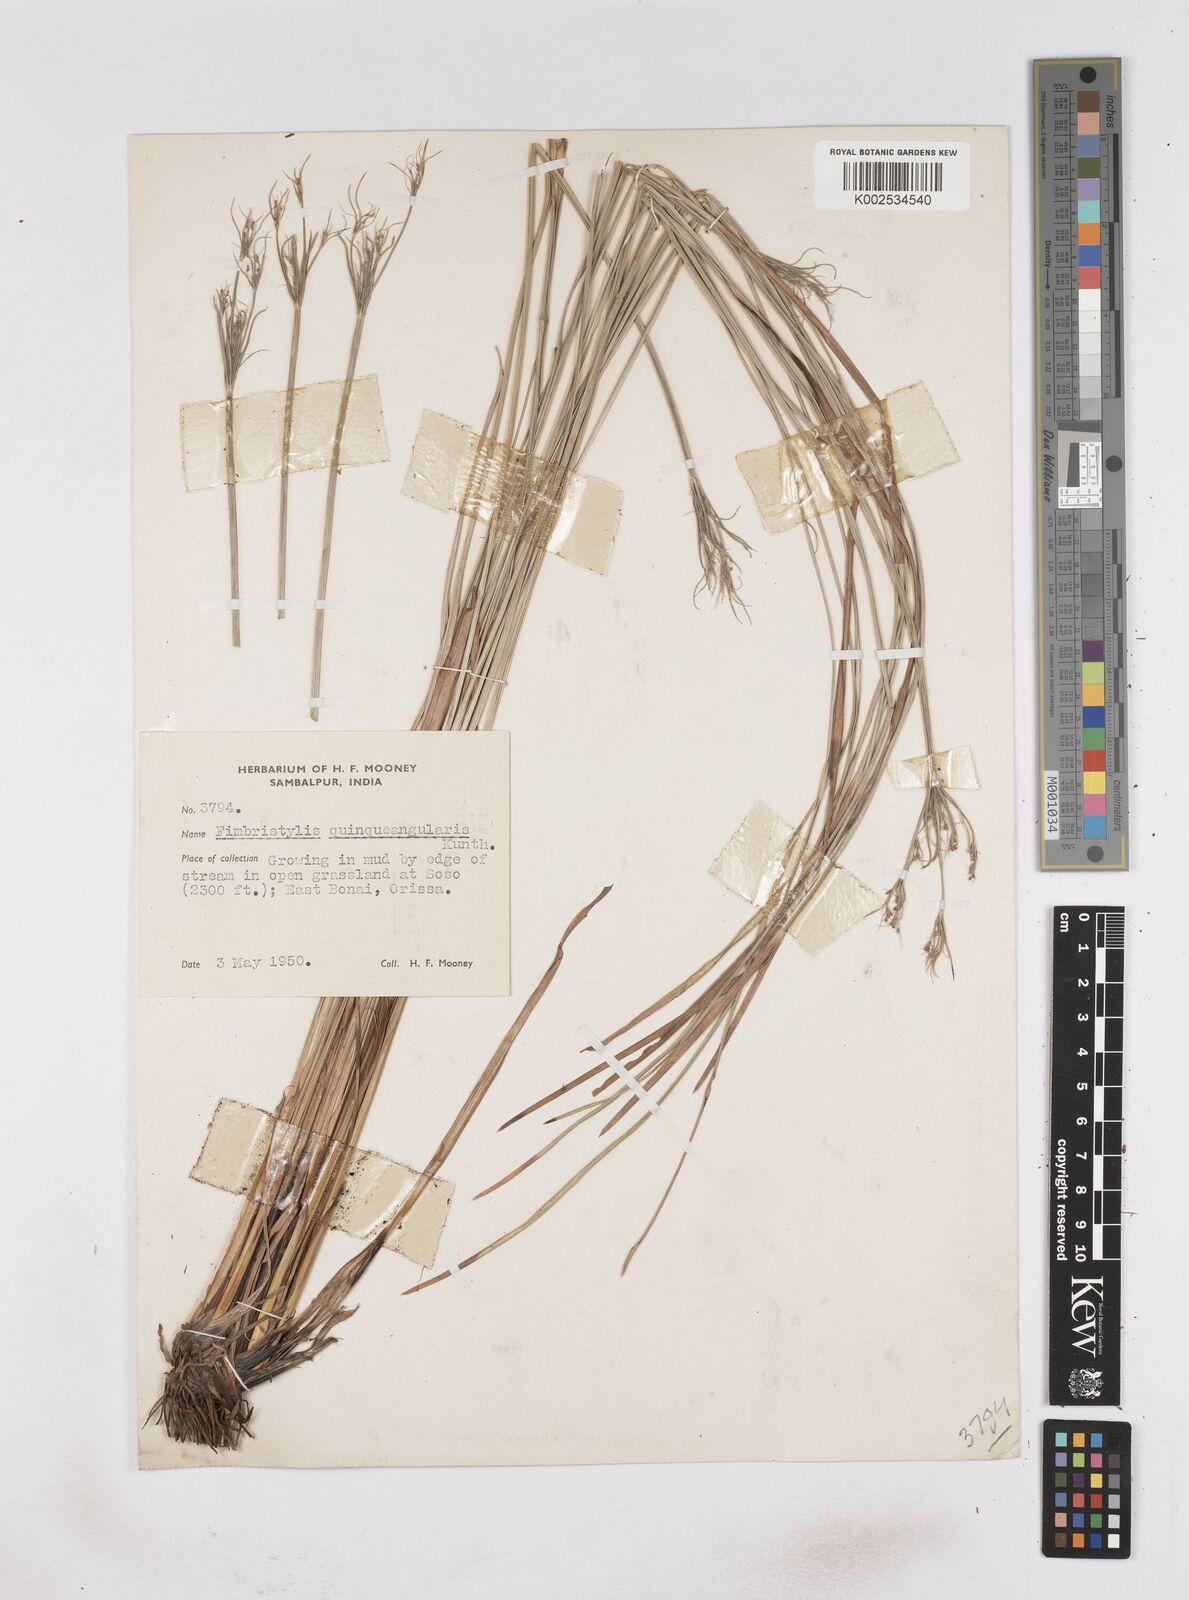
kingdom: Plantae
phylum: Tracheophyta
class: Liliopsida
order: Poales
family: Cyperaceae
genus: Fimbristylis
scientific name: Fimbristylis quinquangularis
